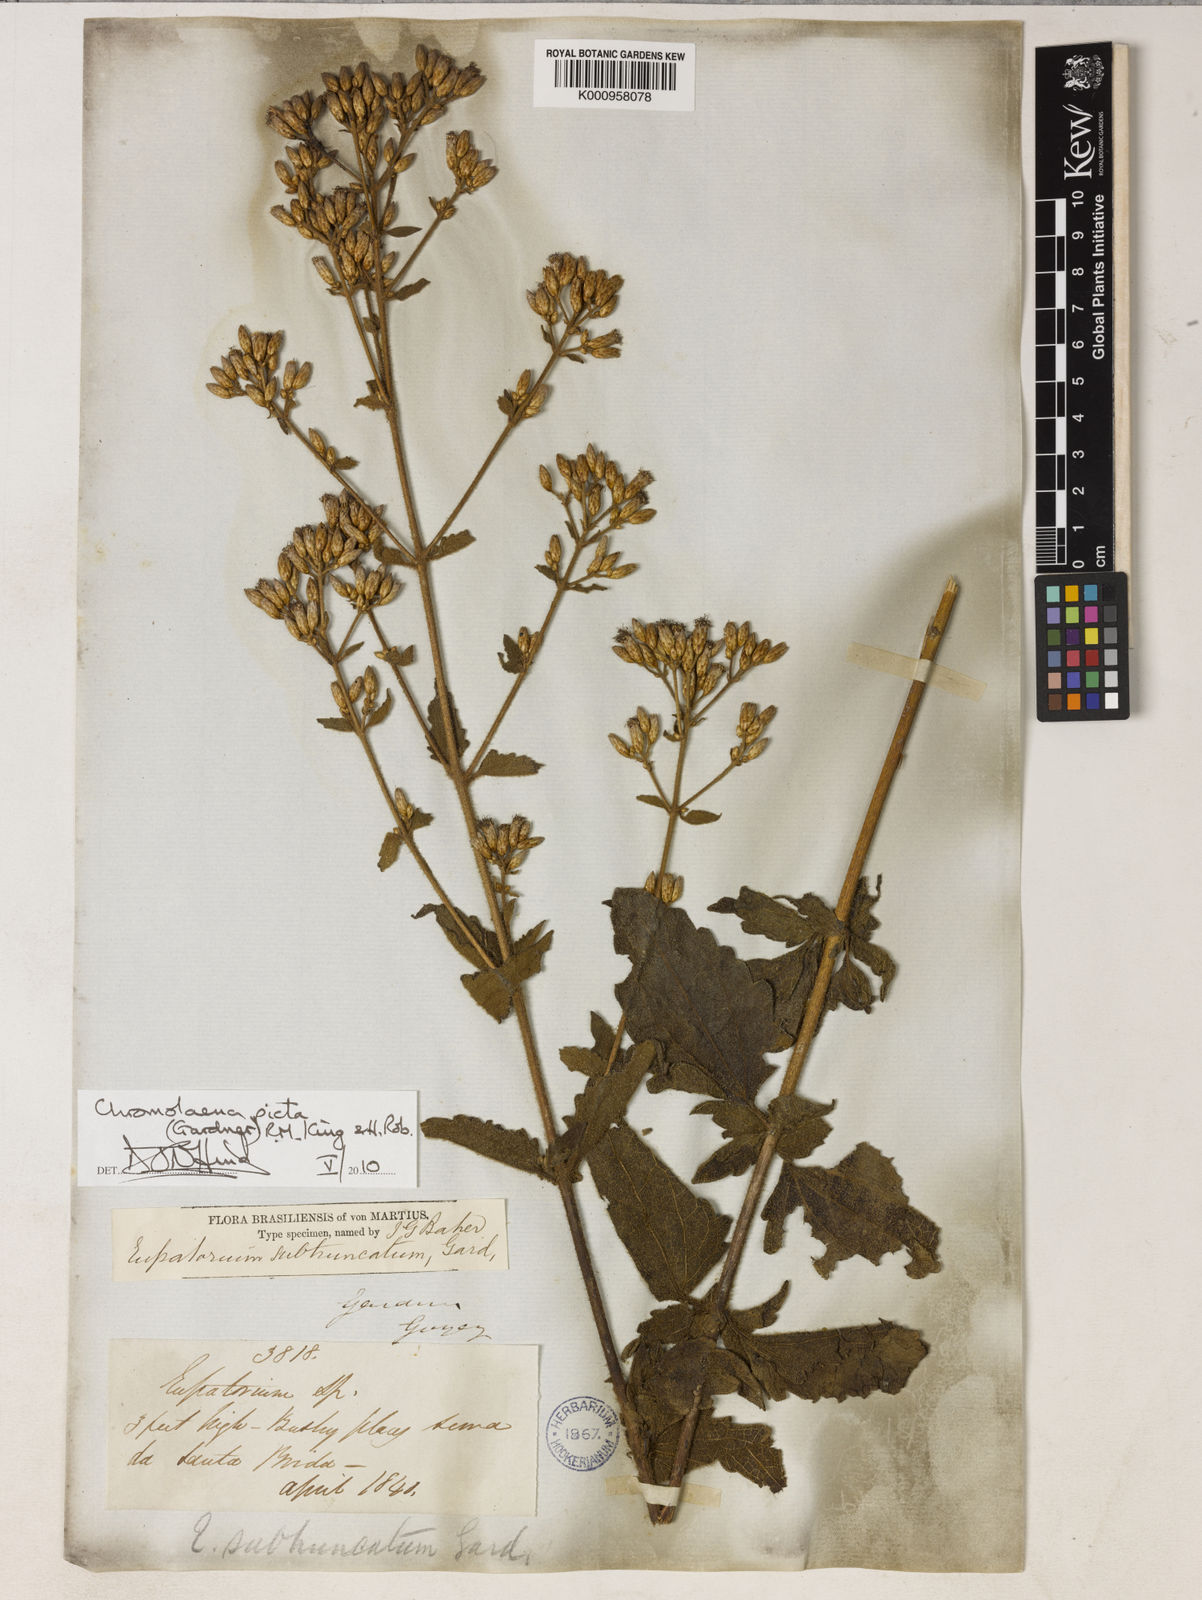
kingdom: Plantae
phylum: Tracheophyta
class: Magnoliopsida
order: Asterales
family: Asteraceae
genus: Chromolaena
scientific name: Chromolaena picta
